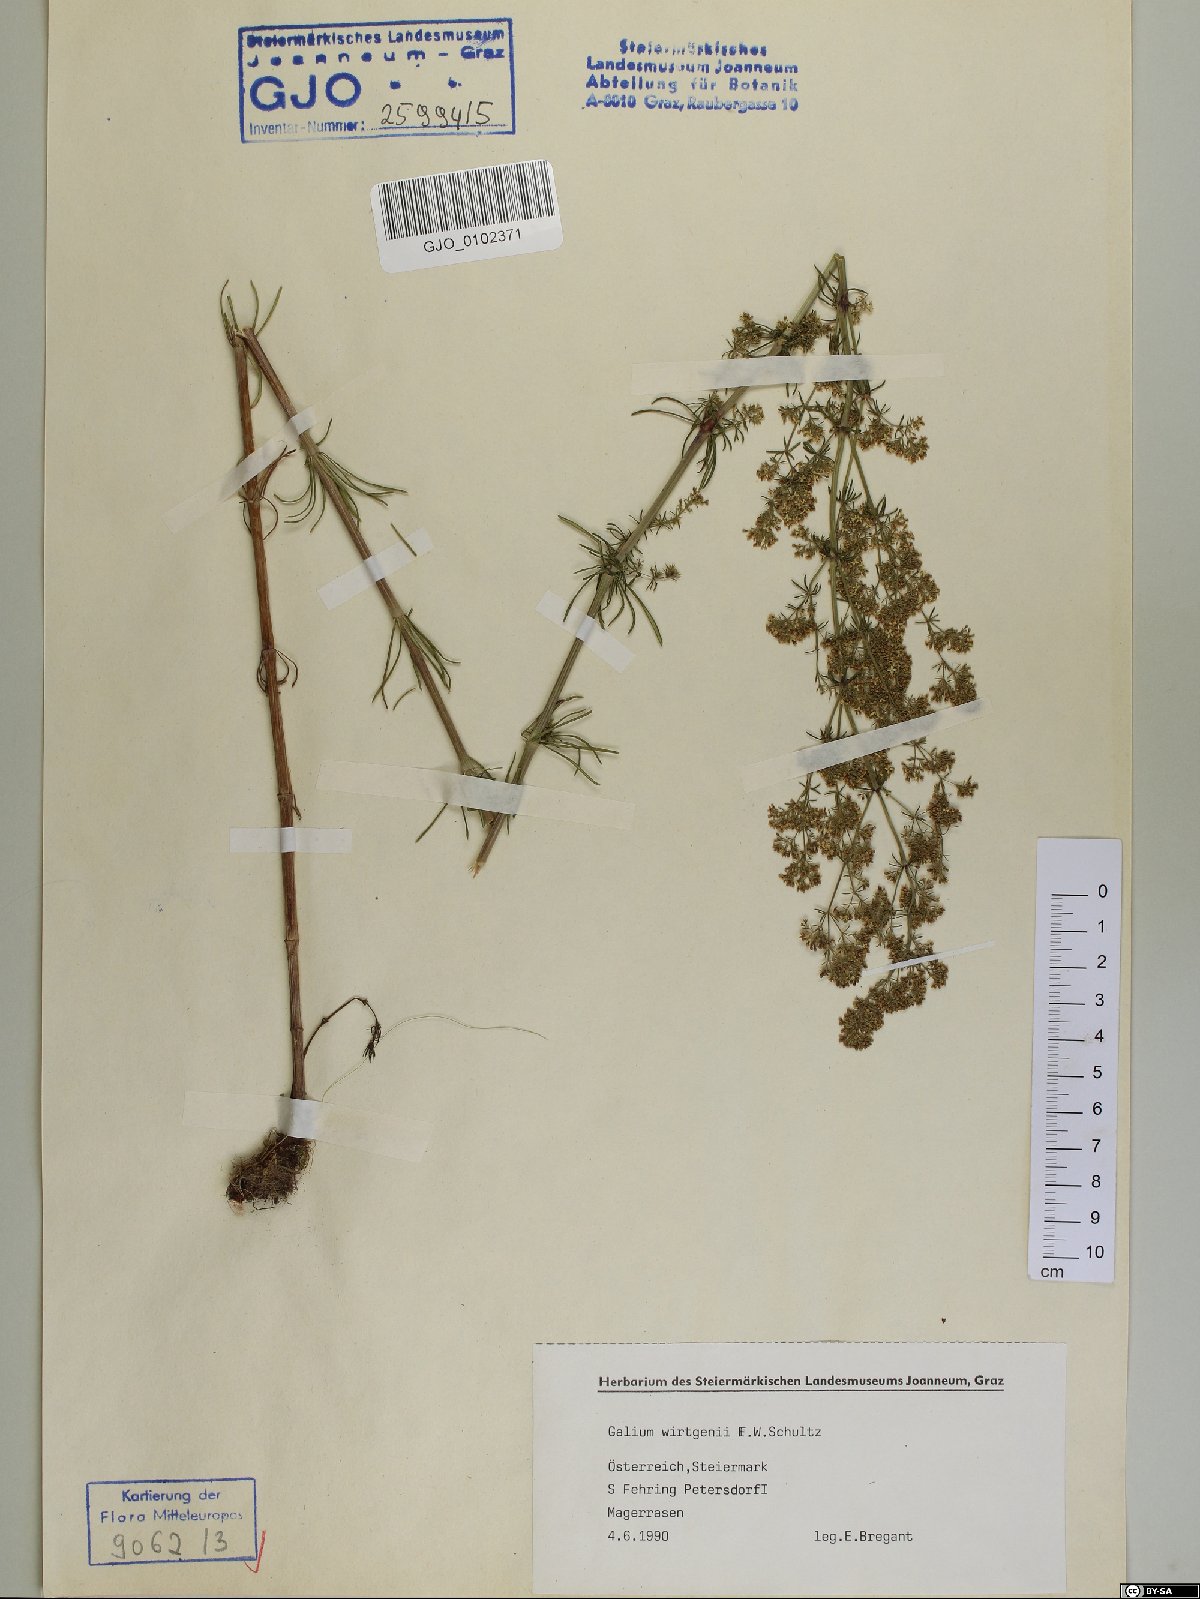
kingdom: Plantae
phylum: Tracheophyta
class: Magnoliopsida
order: Gentianales
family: Rubiaceae
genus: Galium
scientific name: Galium verum
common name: Lady's bedstraw
